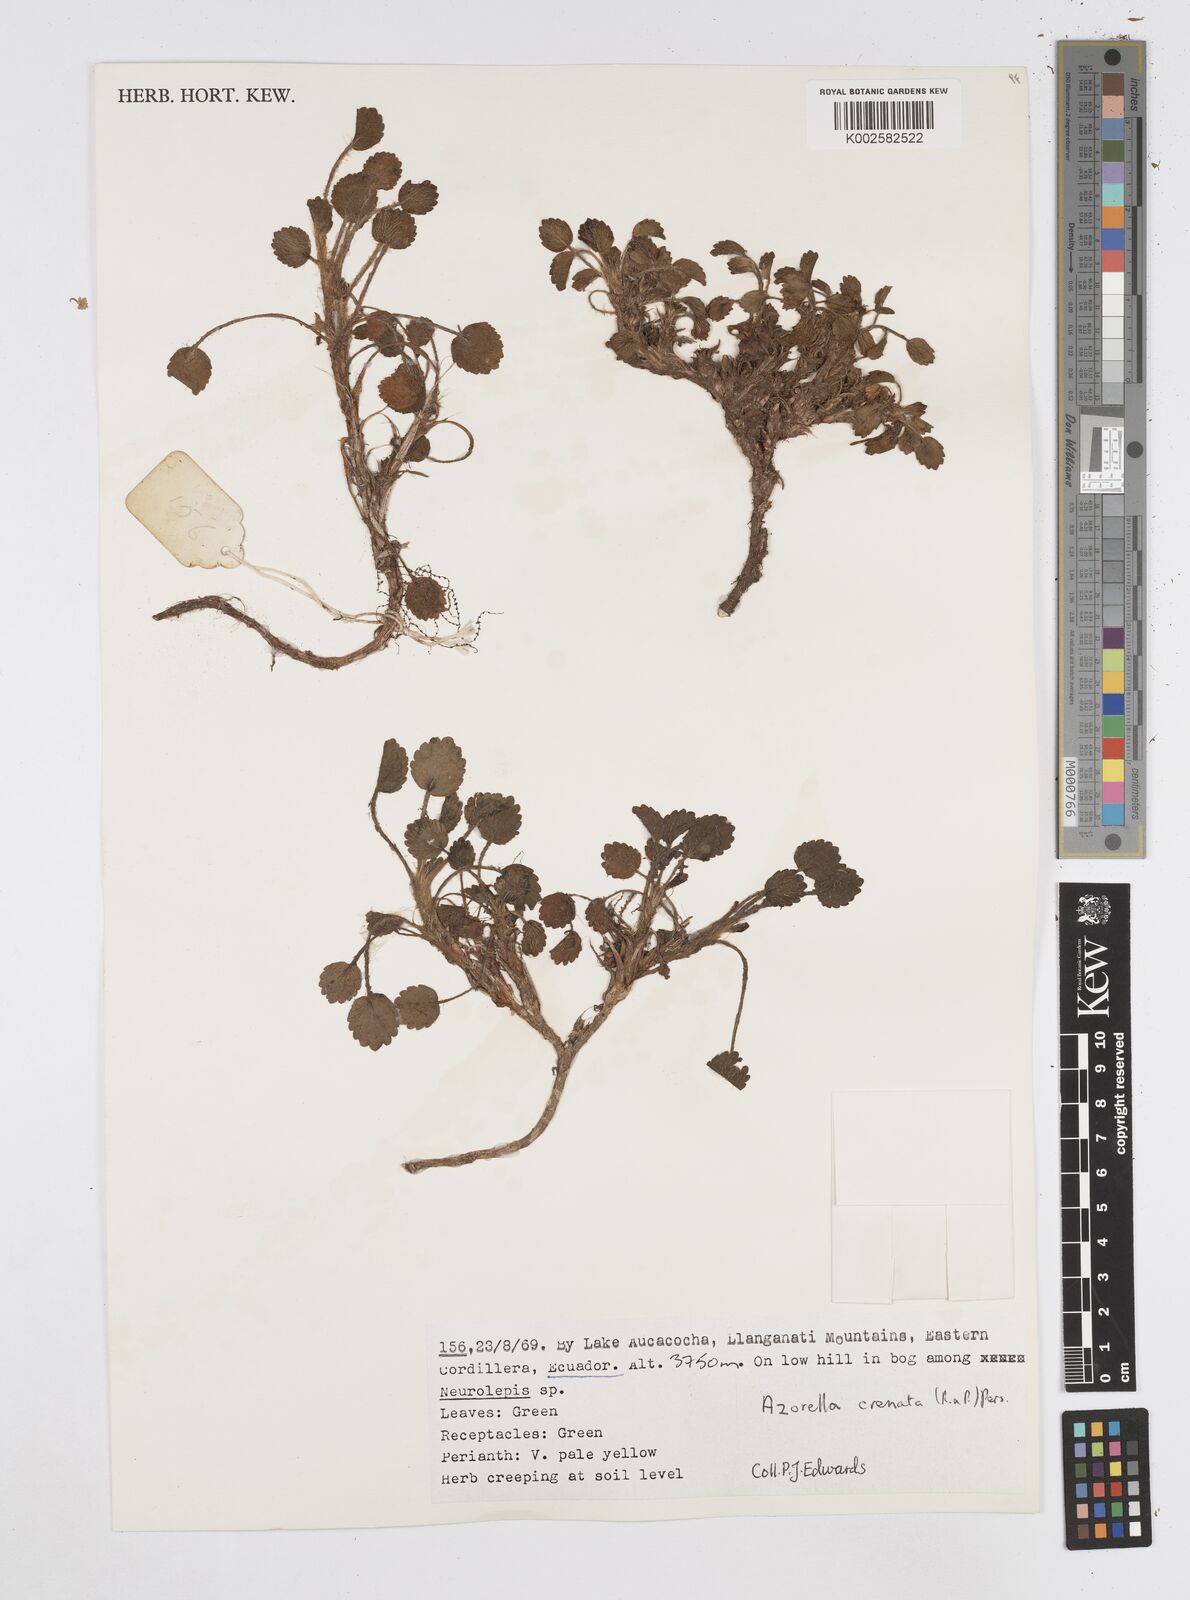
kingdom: Plantae
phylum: Tracheophyta
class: Magnoliopsida
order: Apiales
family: Apiaceae
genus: Azorella
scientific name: Azorella crenata
